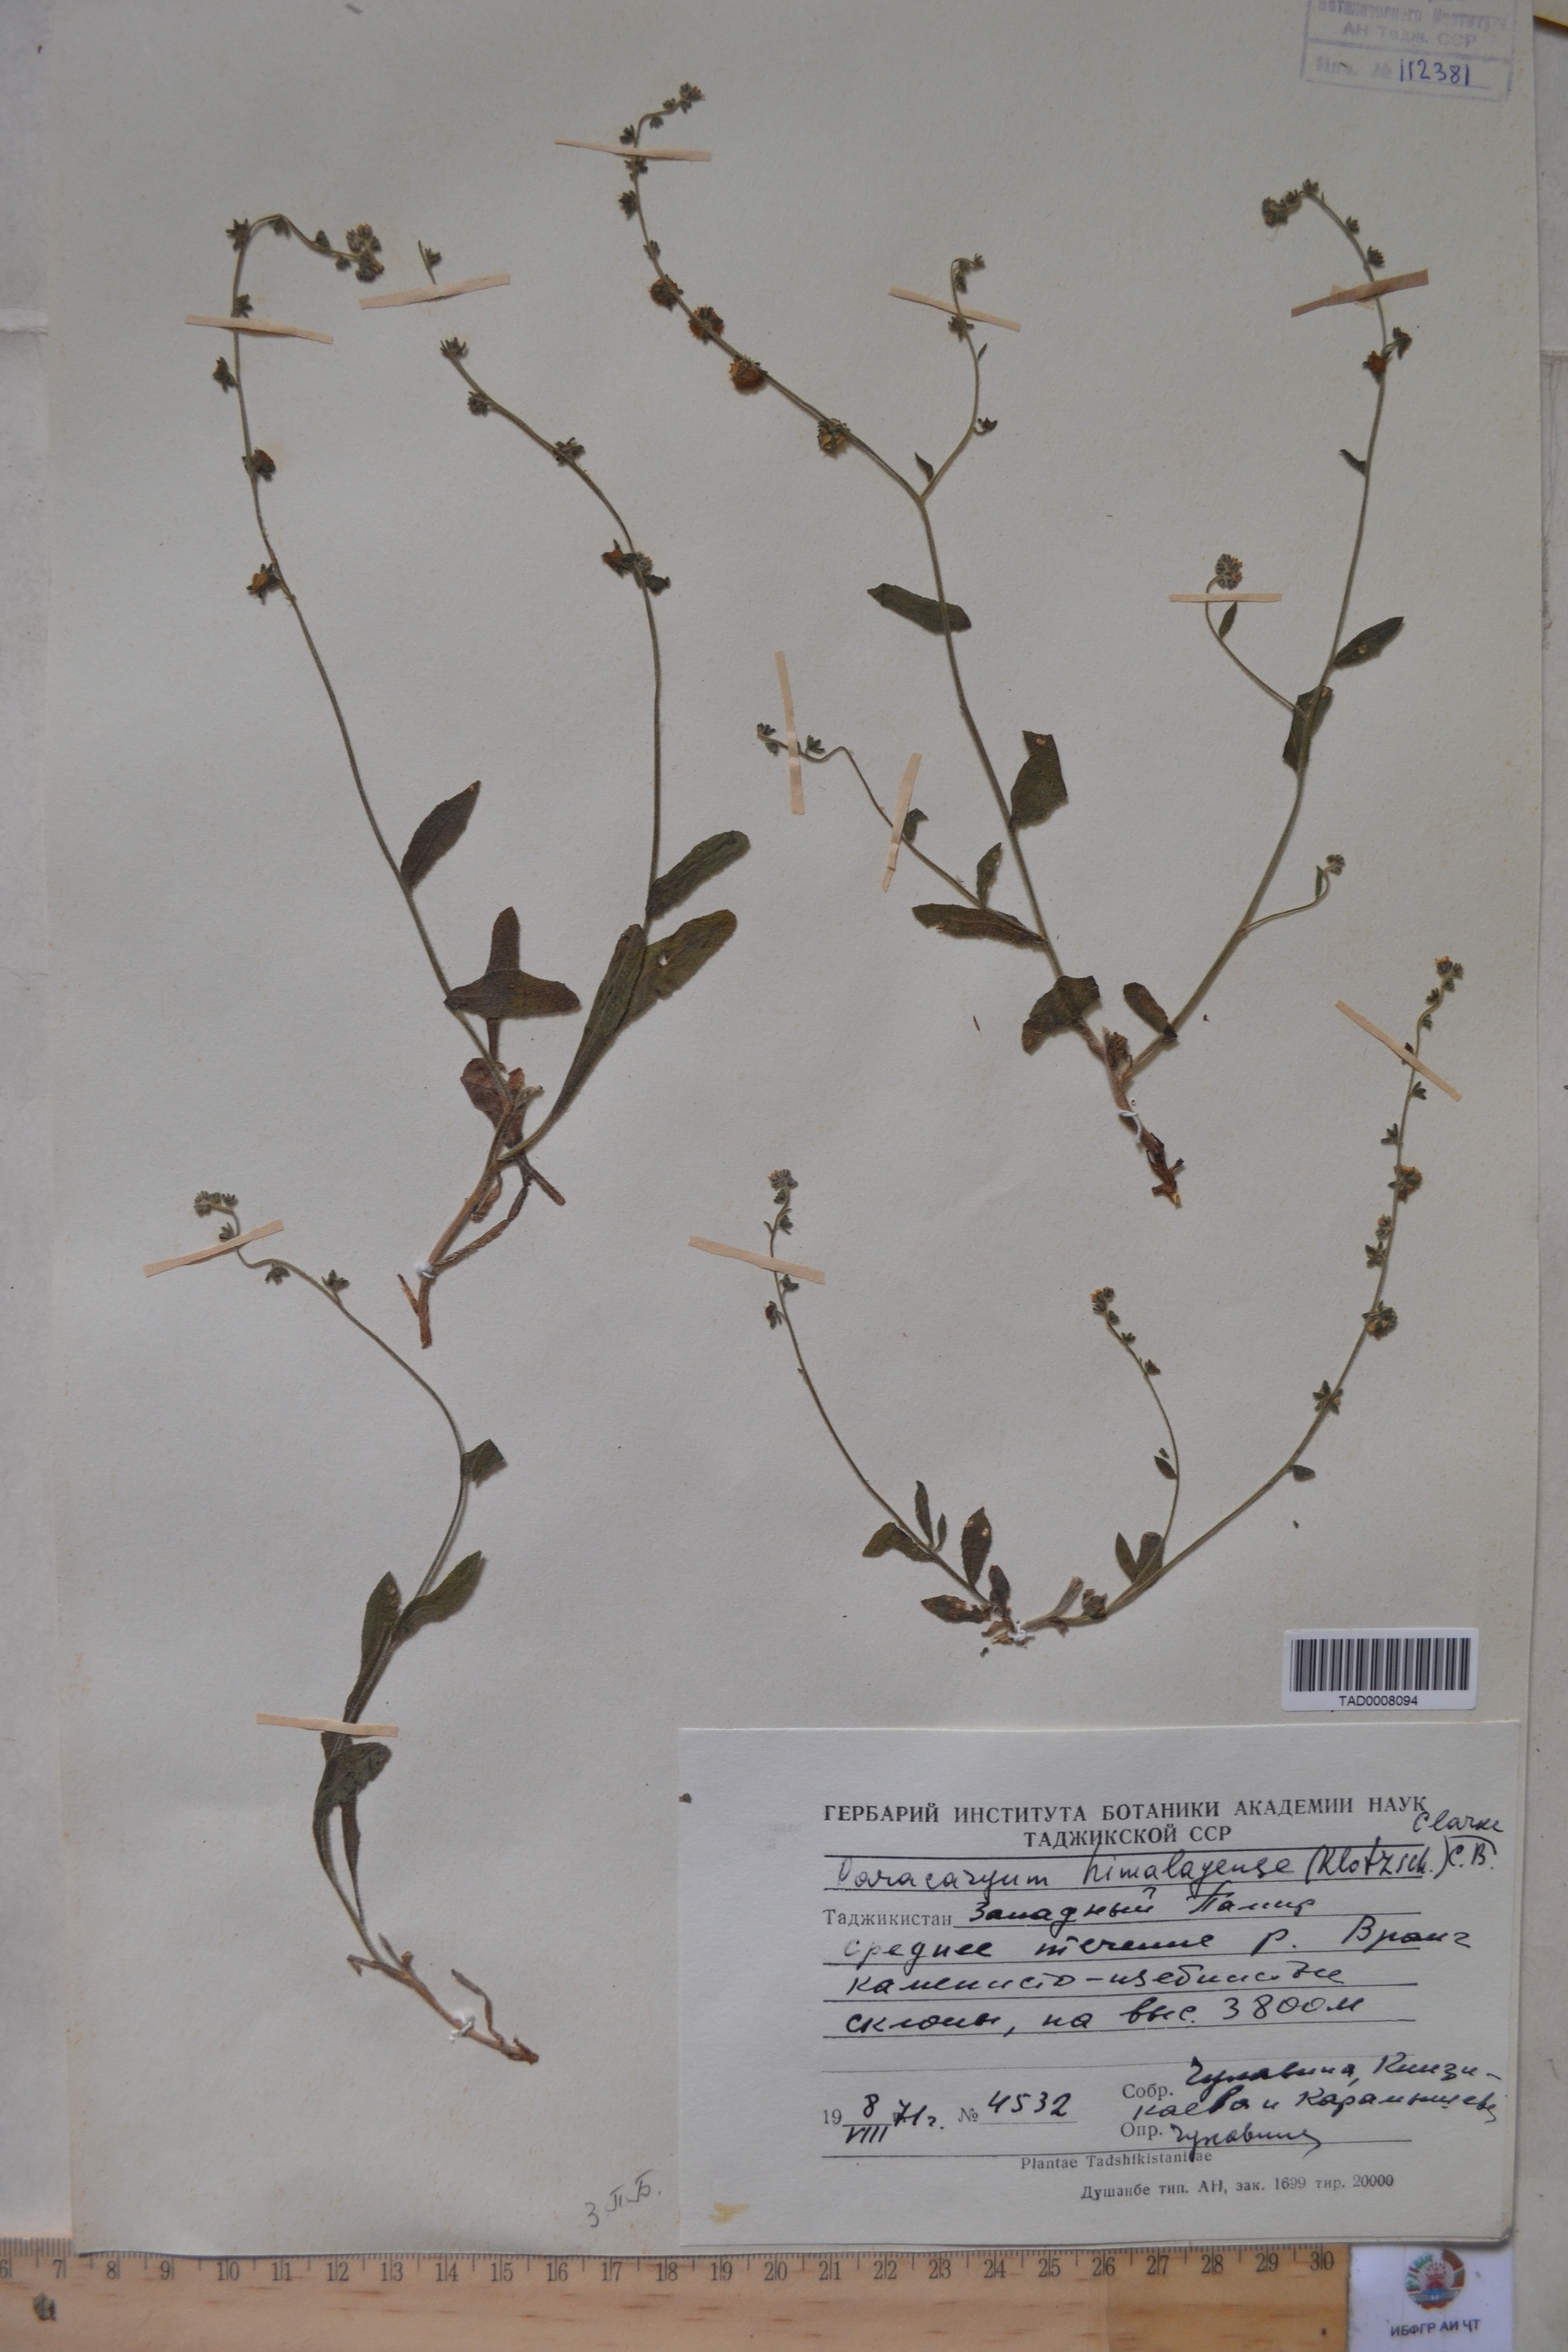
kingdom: Plantae
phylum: Tracheophyta
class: Magnoliopsida
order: Boraginales
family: Boraginaceae
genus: Paracaryum
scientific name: Paracaryum himalayense
